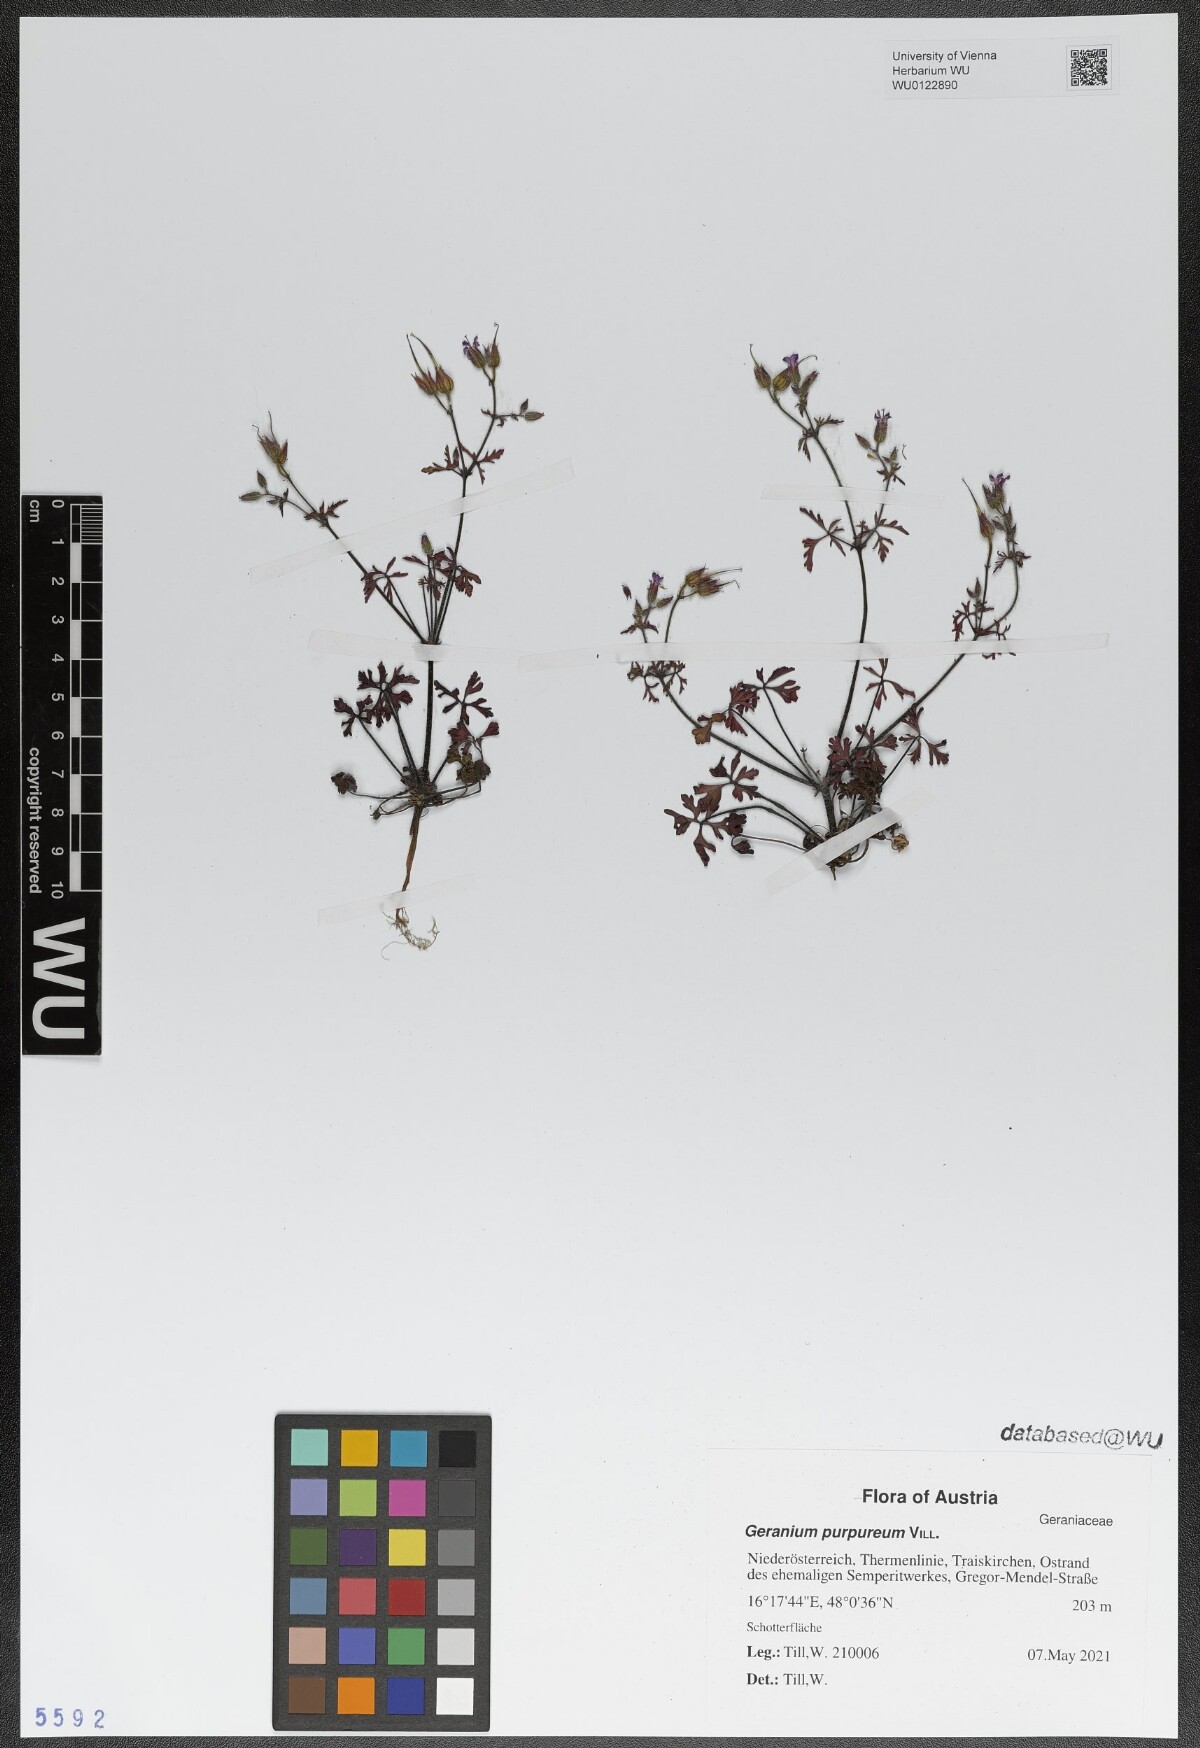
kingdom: Plantae
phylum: Tracheophyta
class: Magnoliopsida
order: Geraniales
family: Geraniaceae
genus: Geranium
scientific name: Geranium purpureum
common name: Little-robin
